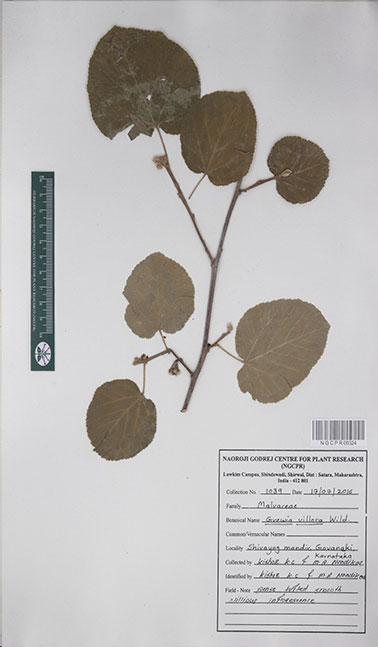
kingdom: Plantae
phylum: Tracheophyta
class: Magnoliopsida
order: Malvales
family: Malvaceae
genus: Grewia
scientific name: Grewia villosa
